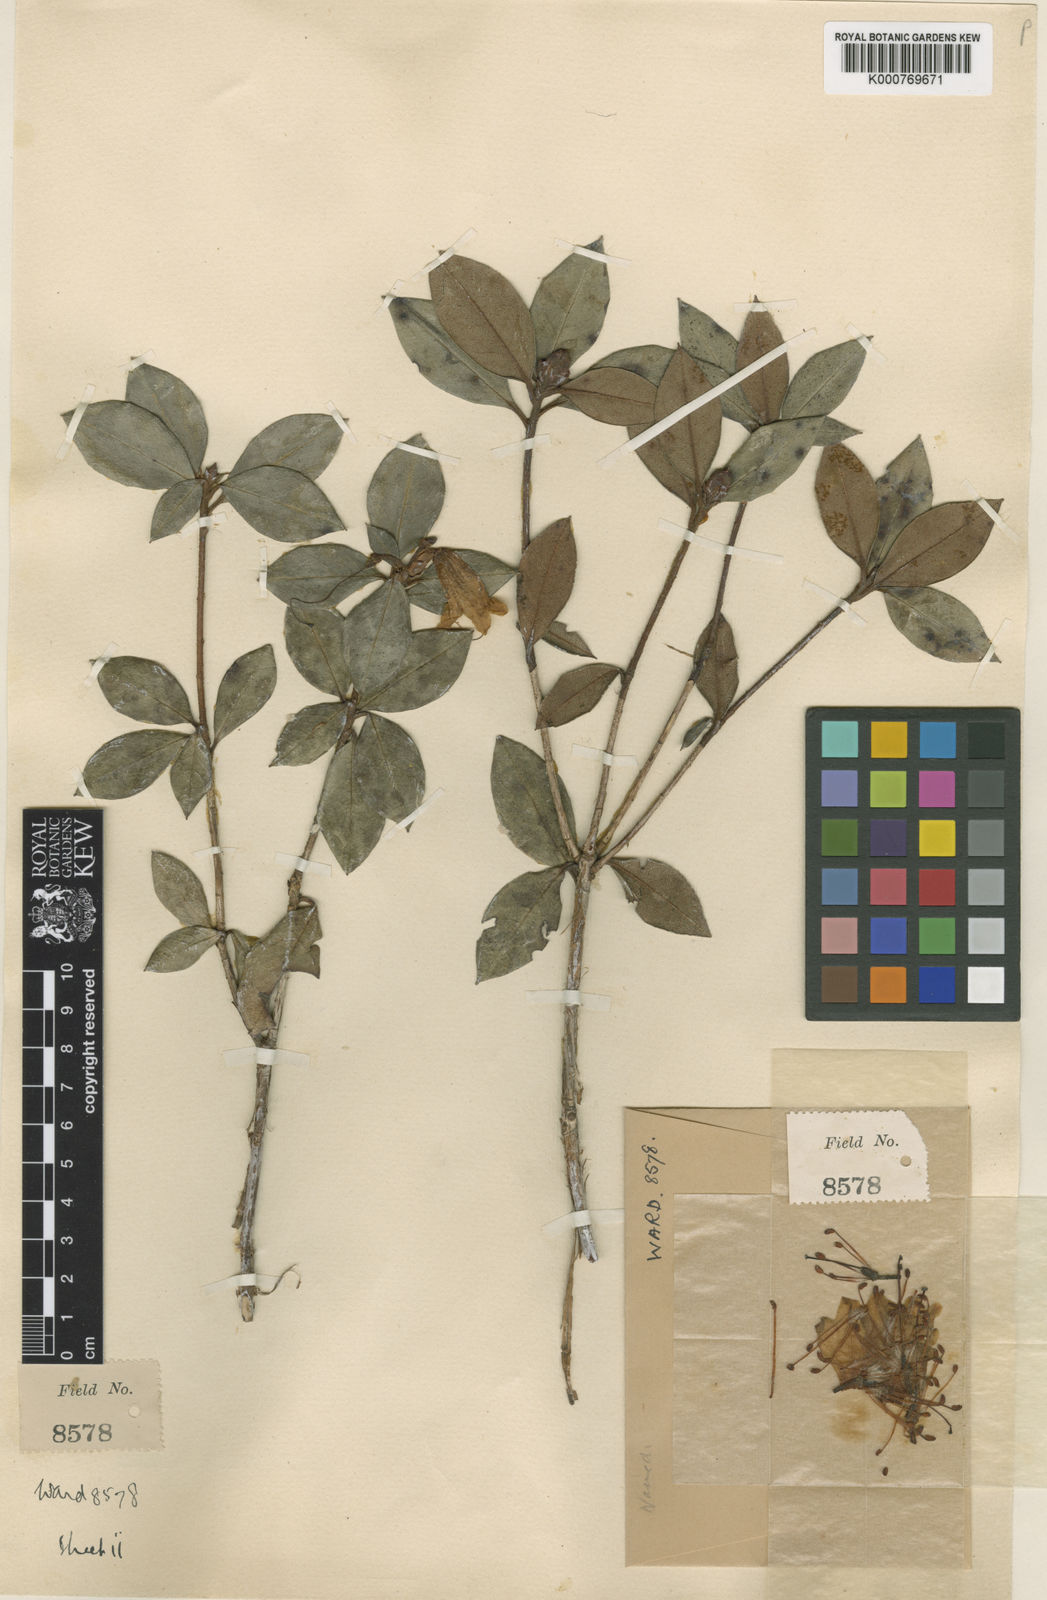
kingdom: Plantae
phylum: Tracheophyta
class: Magnoliopsida
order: Ericales
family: Ericaceae
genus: Rhododendron
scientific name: Rhododendron concinnoides
